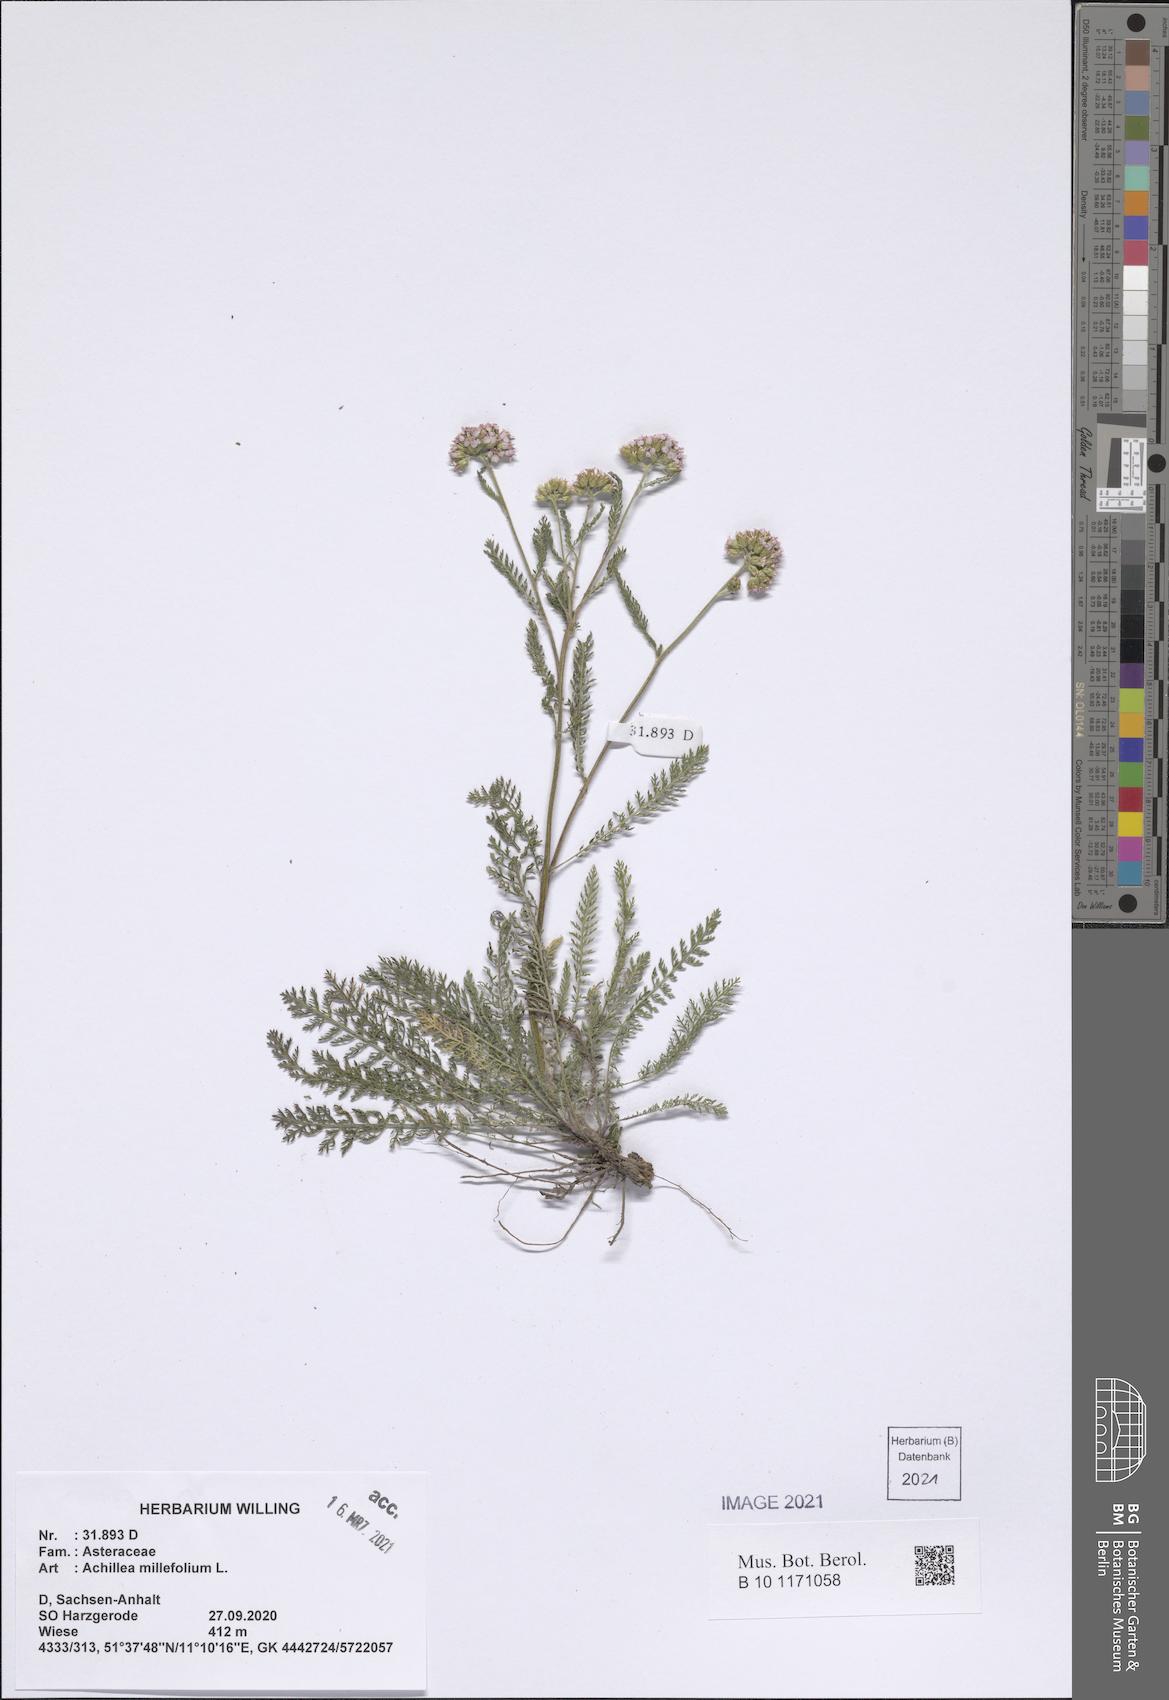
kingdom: Plantae
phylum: Tracheophyta
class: Magnoliopsida
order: Asterales
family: Asteraceae
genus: Achillea
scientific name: Achillea millefolium
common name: Yarrow
